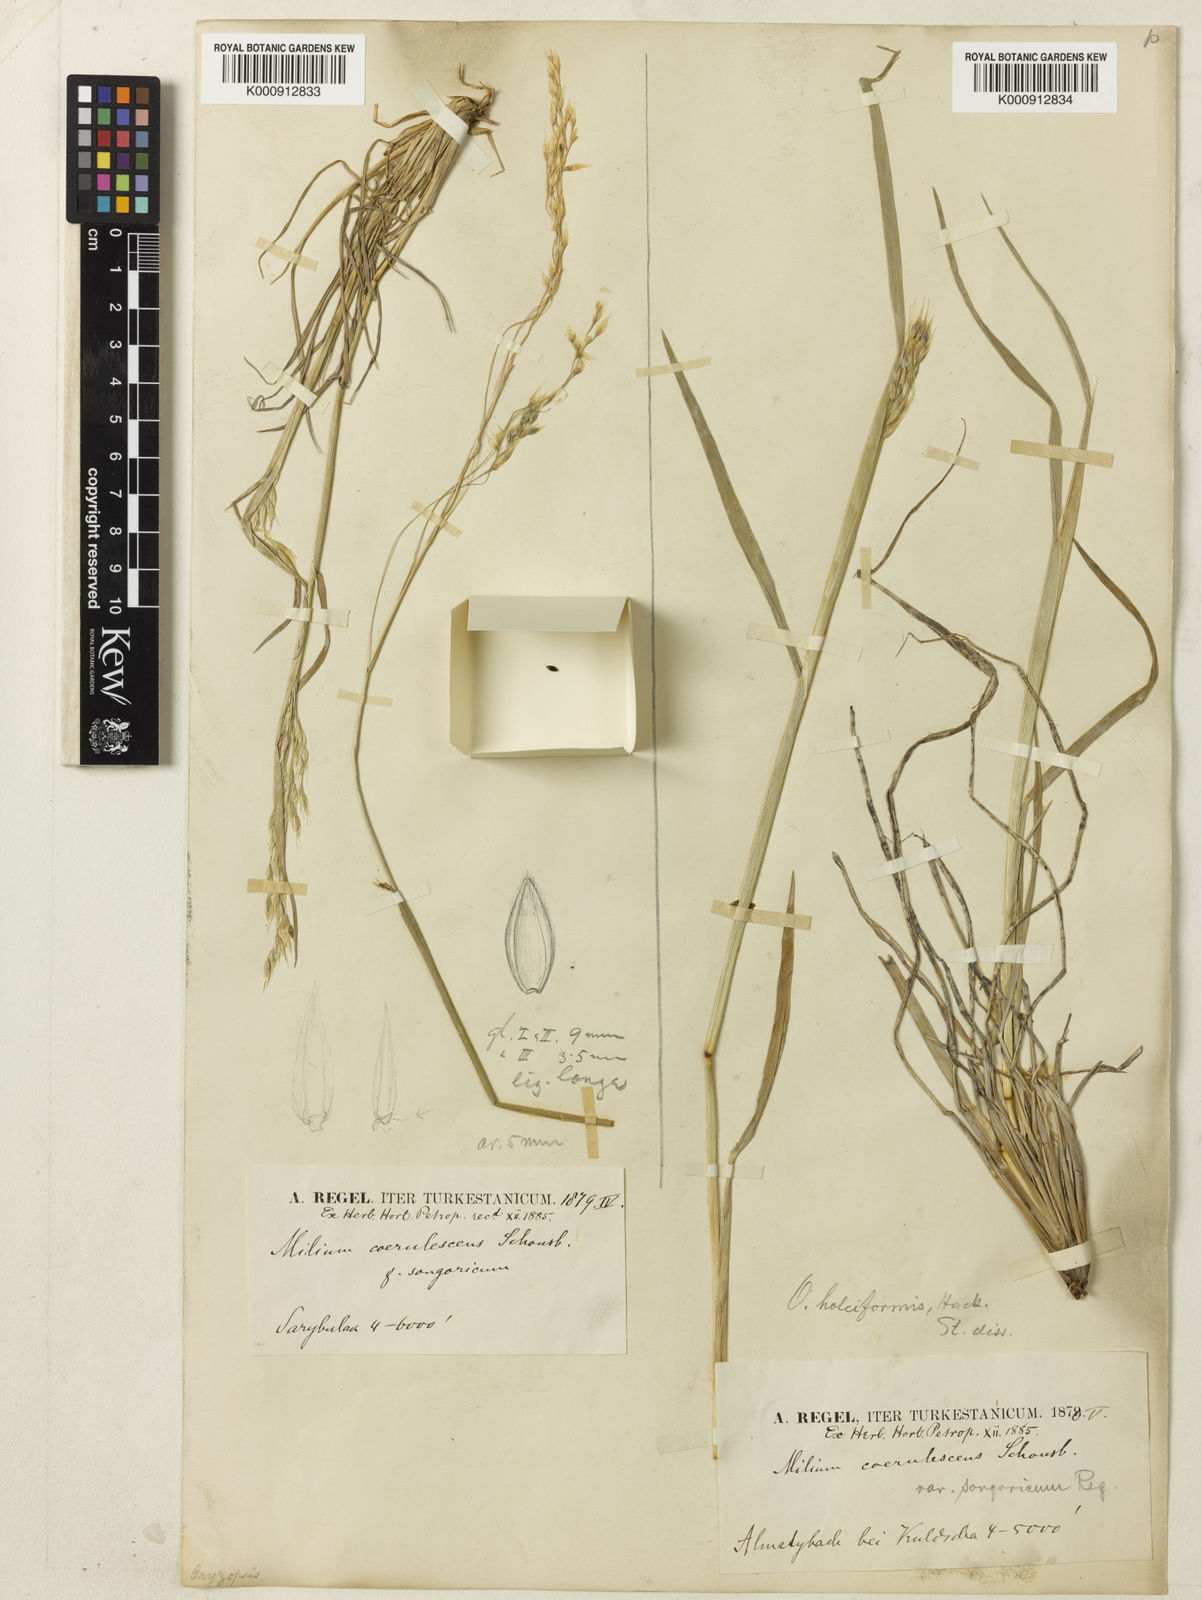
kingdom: Plantae
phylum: Tracheophyta
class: Liliopsida
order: Poales
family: Poaceae
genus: Piptatherum
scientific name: Piptatherum songaricum
